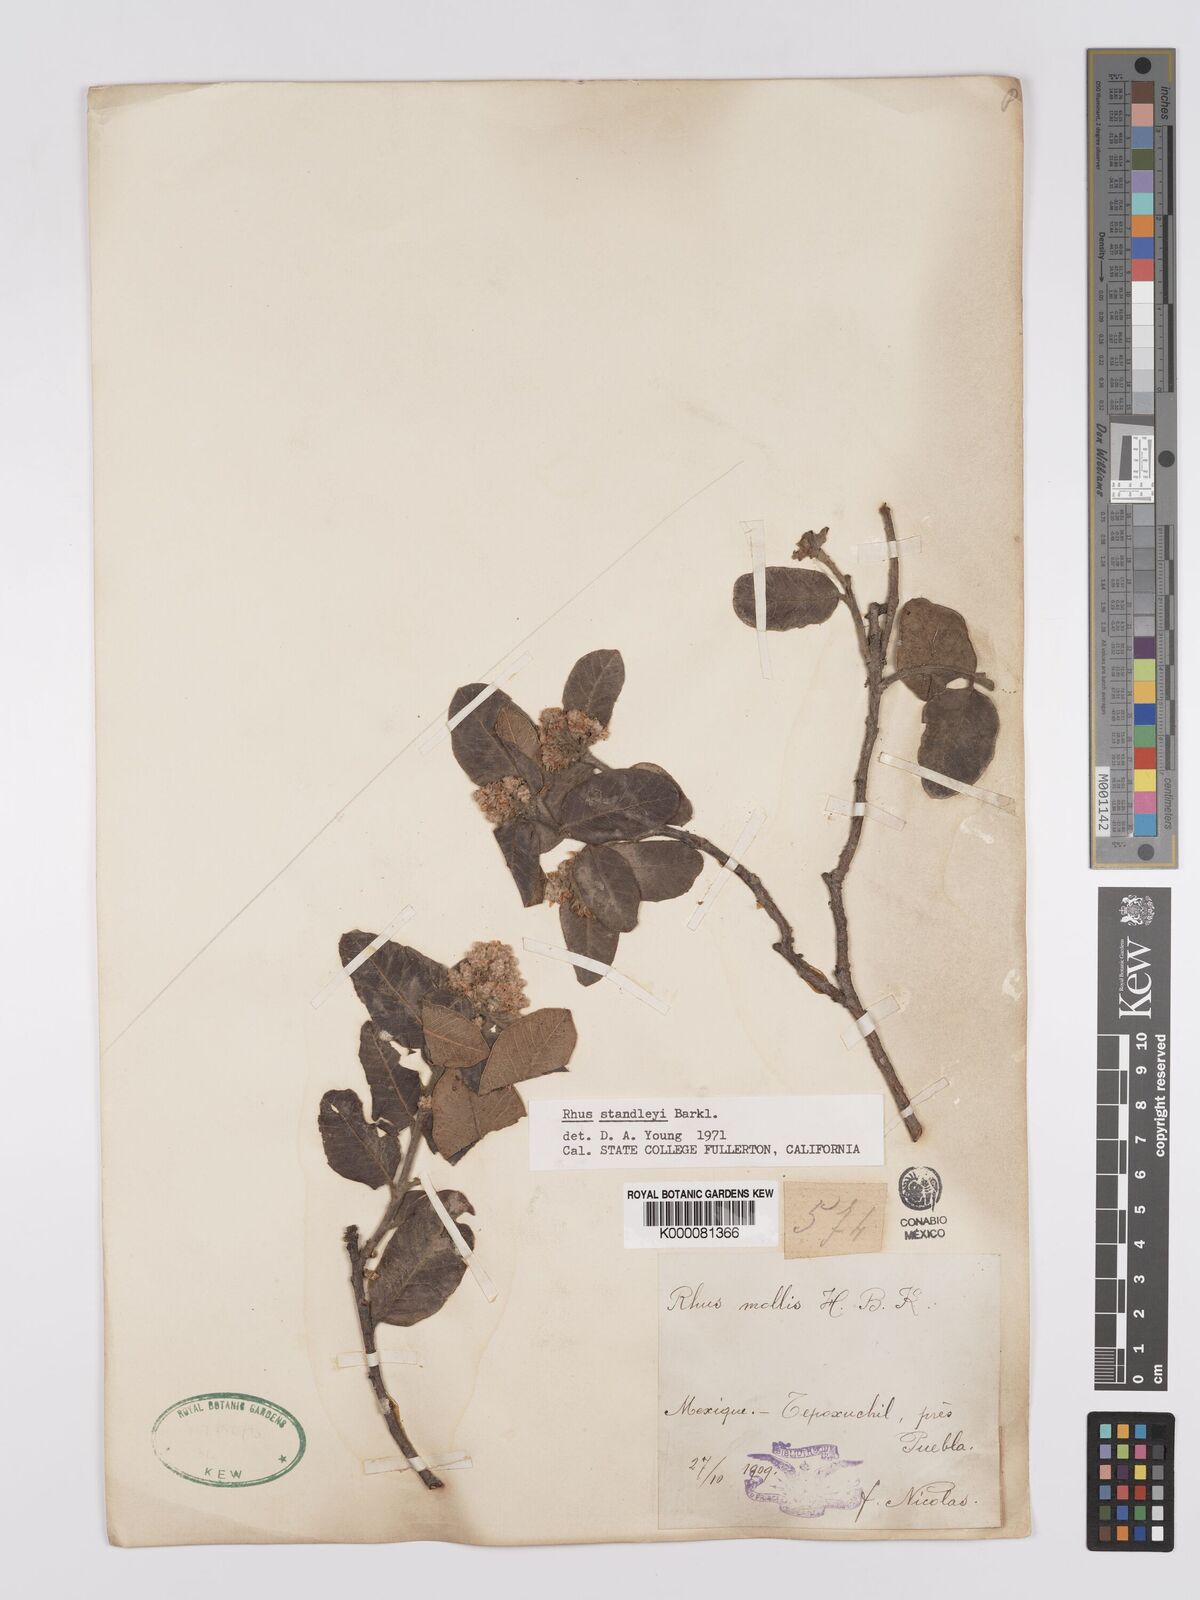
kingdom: Plantae
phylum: Tracheophyta
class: Magnoliopsida
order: Sapindales
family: Anacardiaceae
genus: Rhus
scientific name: Rhus standleyi
